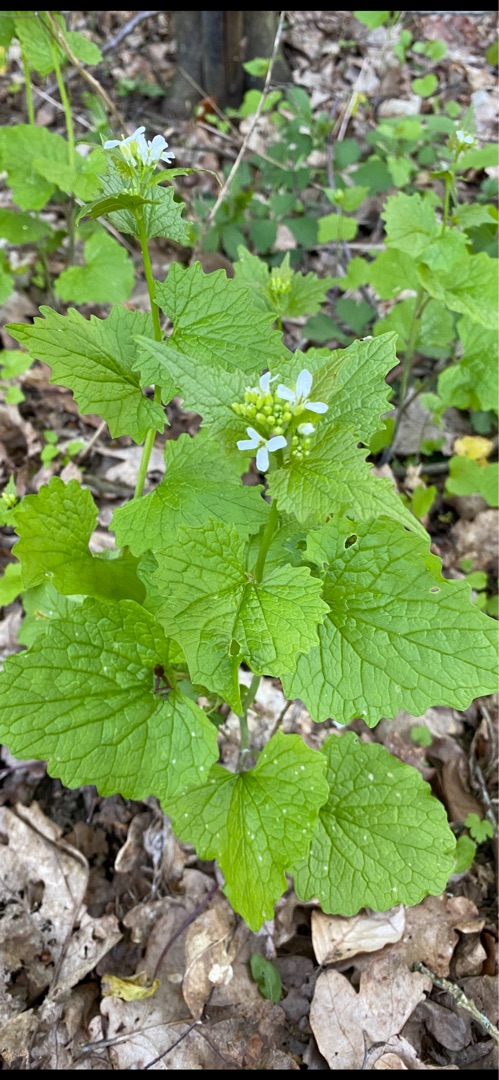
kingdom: Plantae
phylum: Tracheophyta
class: Magnoliopsida
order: Brassicales
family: Brassicaceae
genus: Alliaria
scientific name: Alliaria petiolata
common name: Løgkarse
